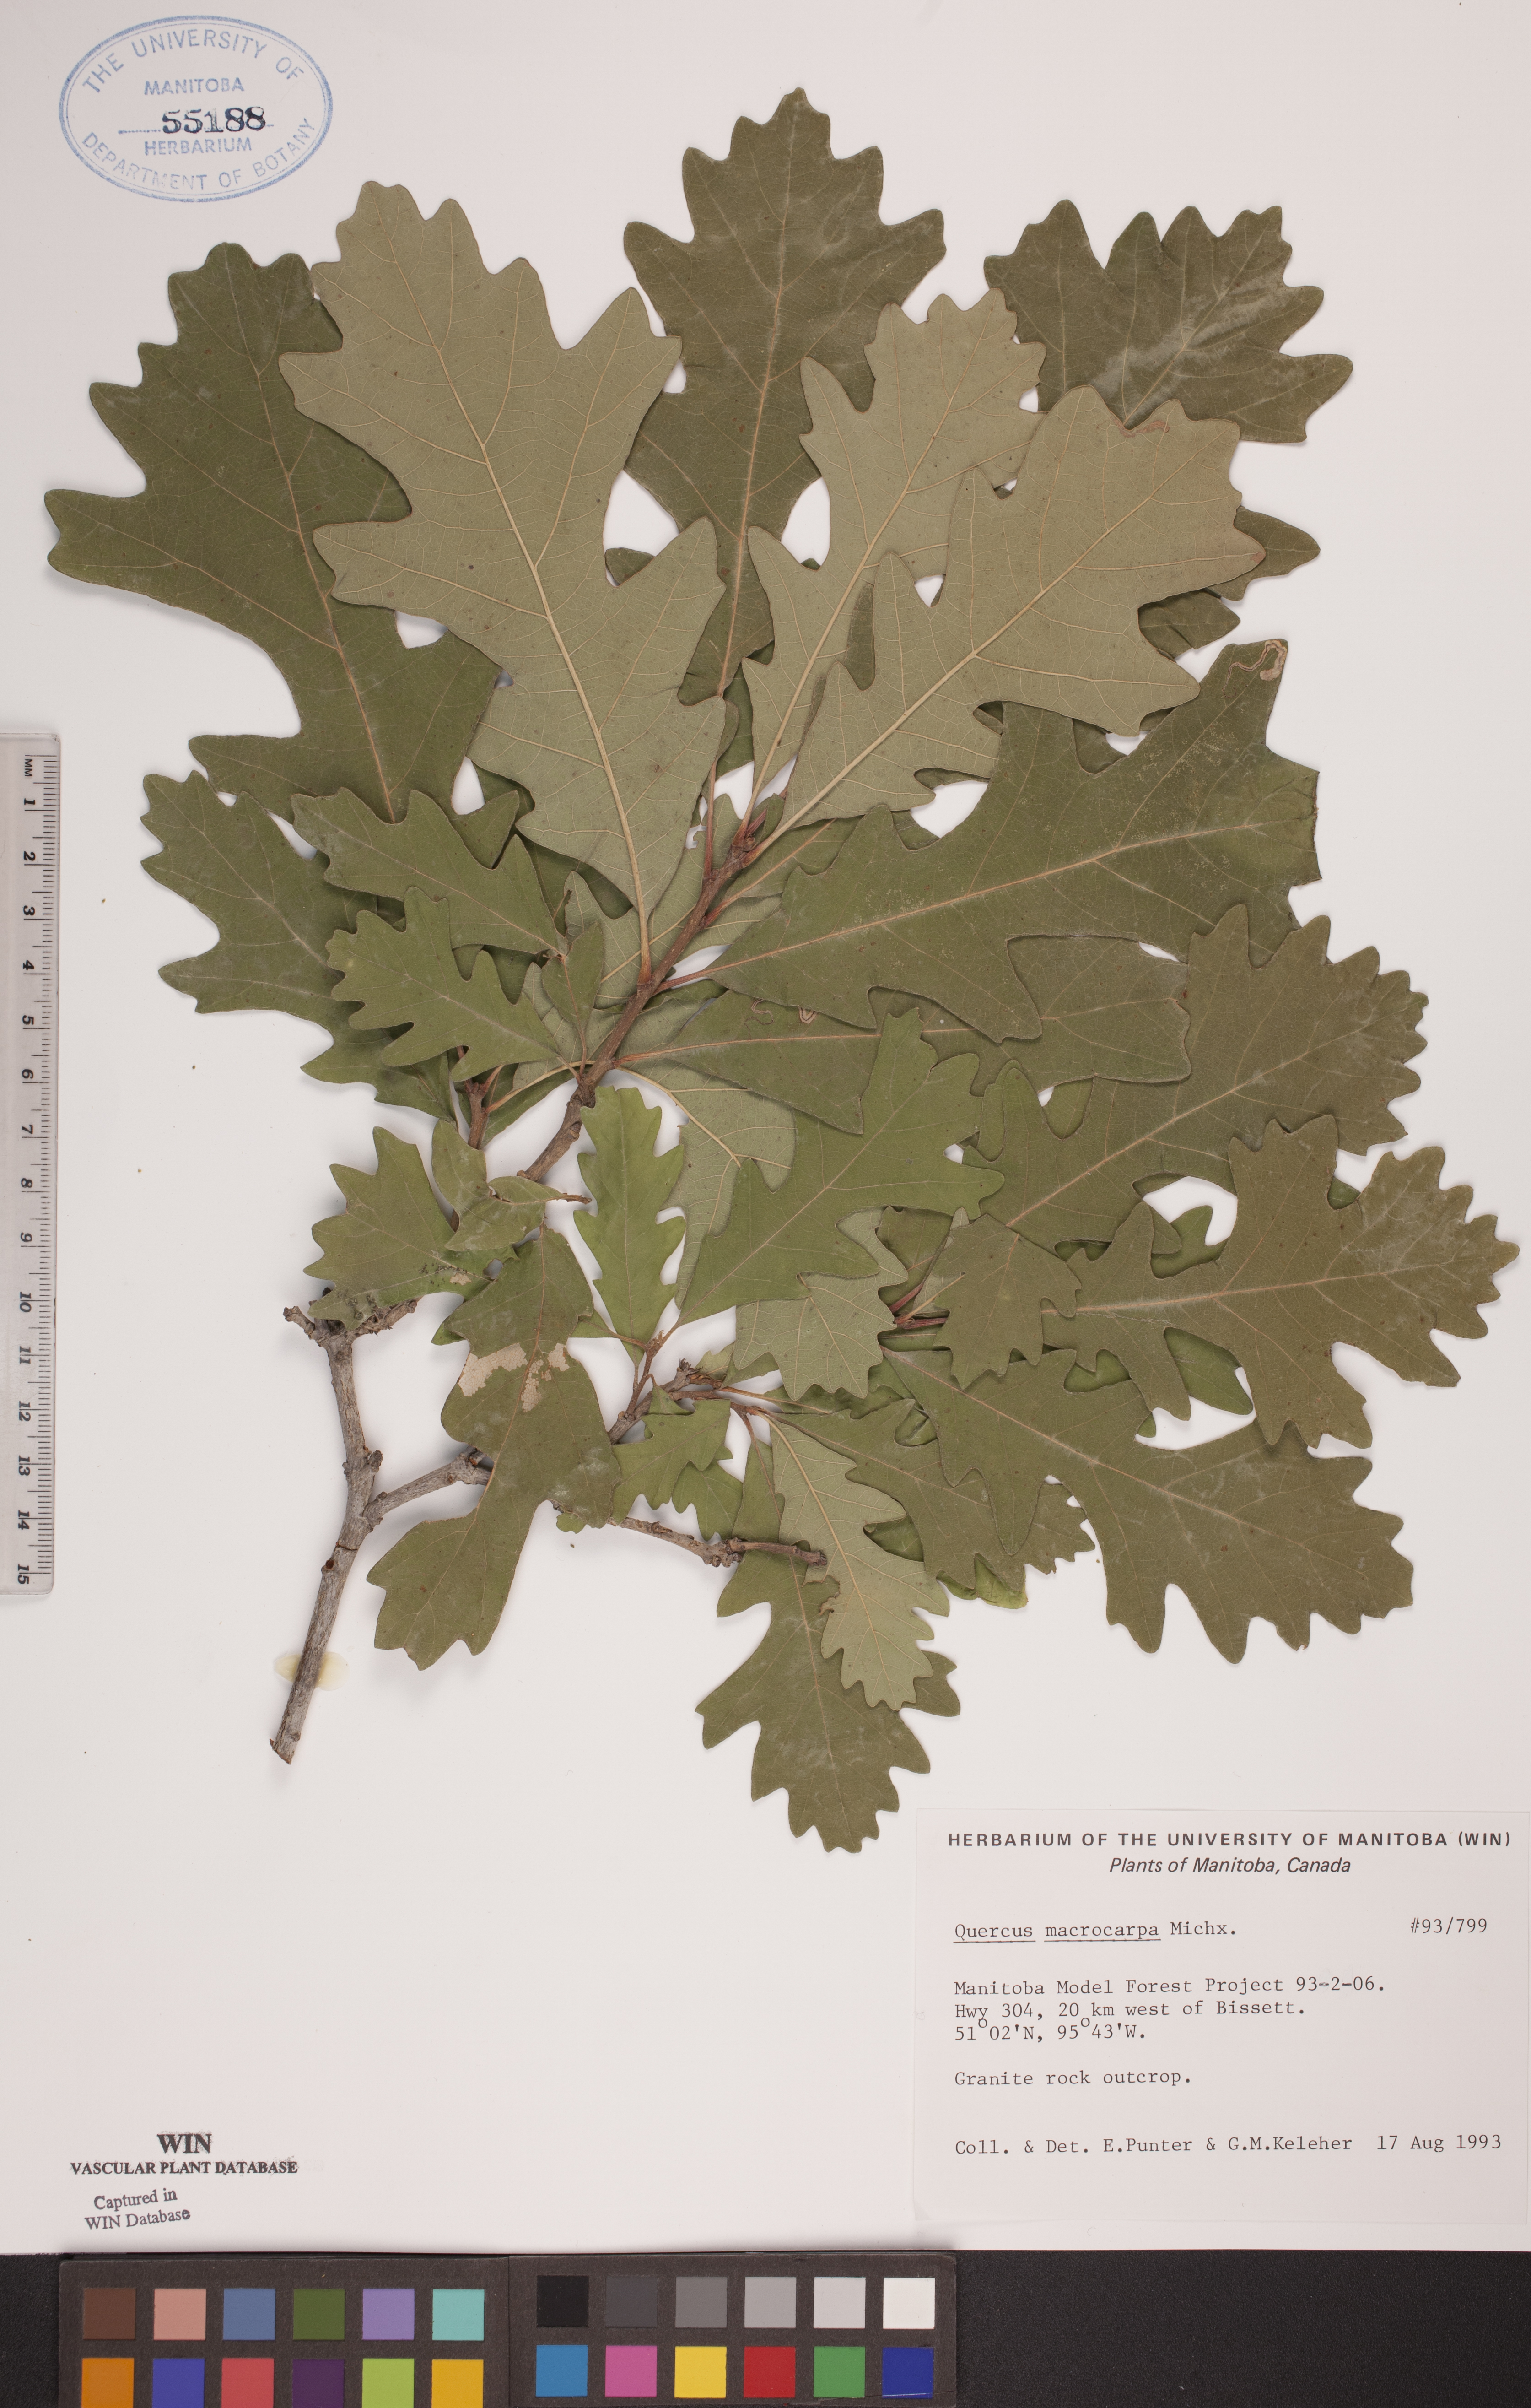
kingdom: Plantae
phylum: Tracheophyta
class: Magnoliopsida
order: Fagales
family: Fagaceae
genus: Quercus
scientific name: Quercus macrocarpa
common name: Bur oak
